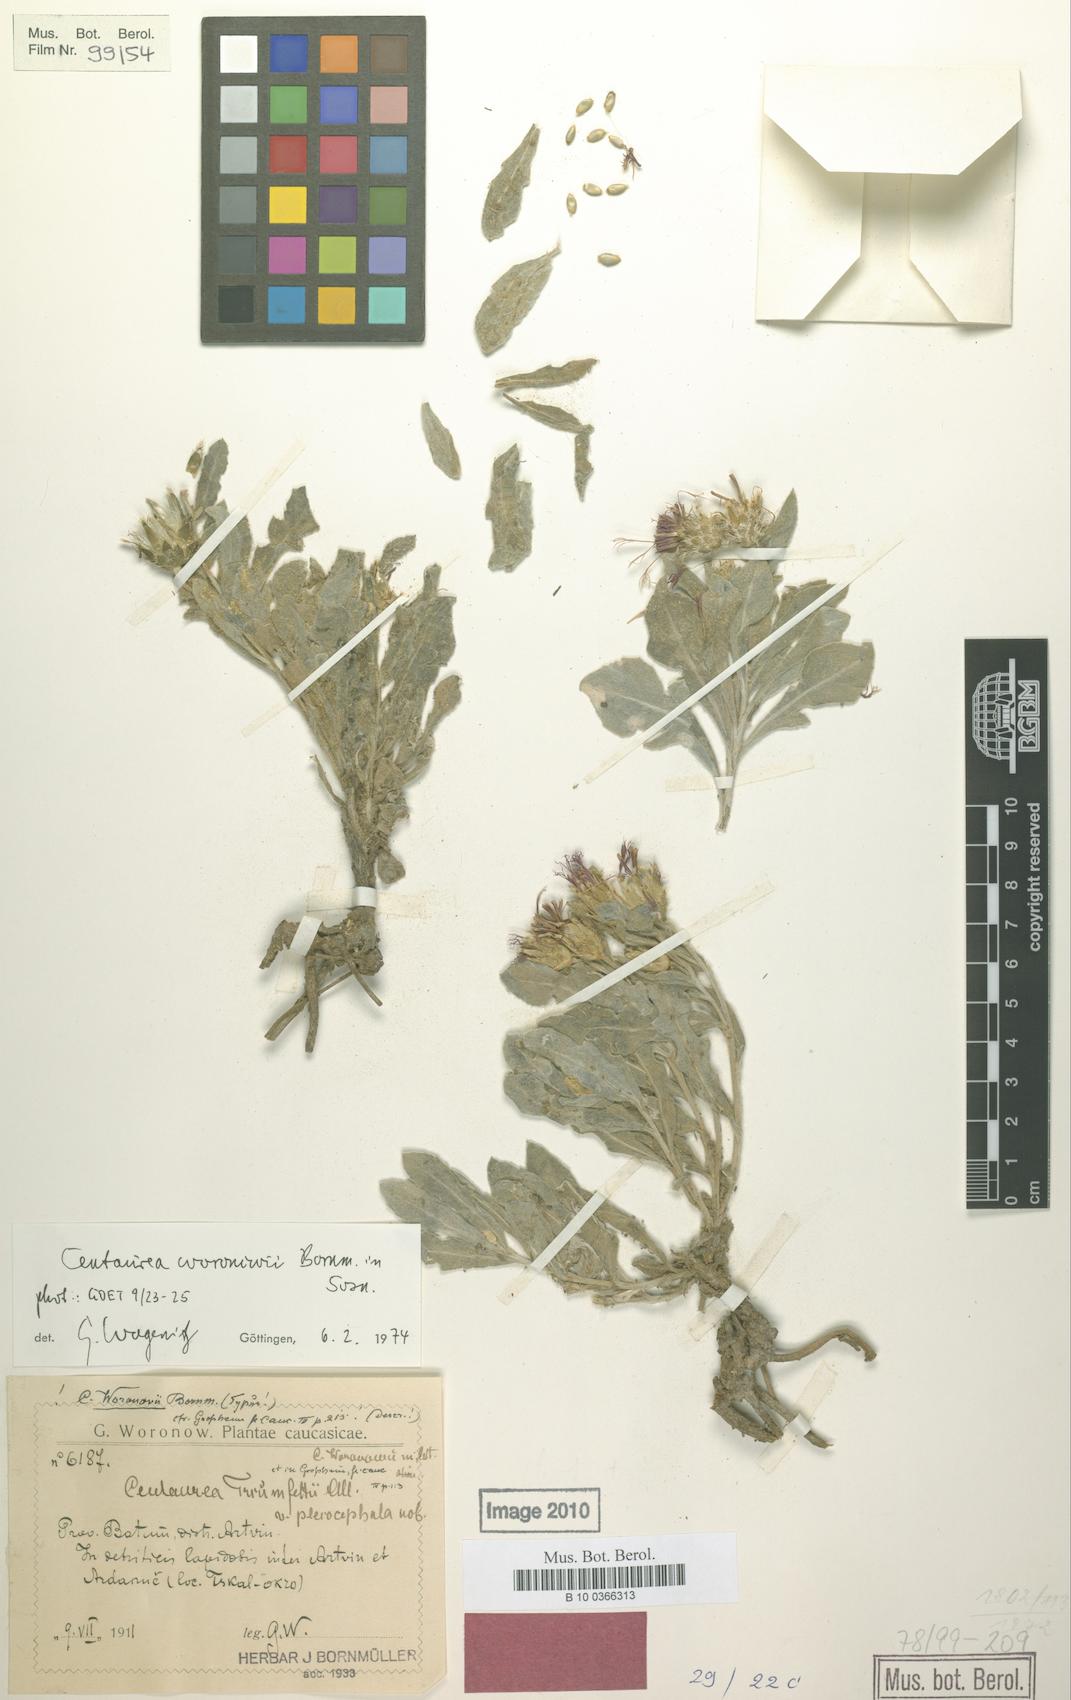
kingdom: Plantae
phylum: Tracheophyta
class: Magnoliopsida
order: Asterales
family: Asteraceae
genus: Centaurea
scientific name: Centaurea woronowii
